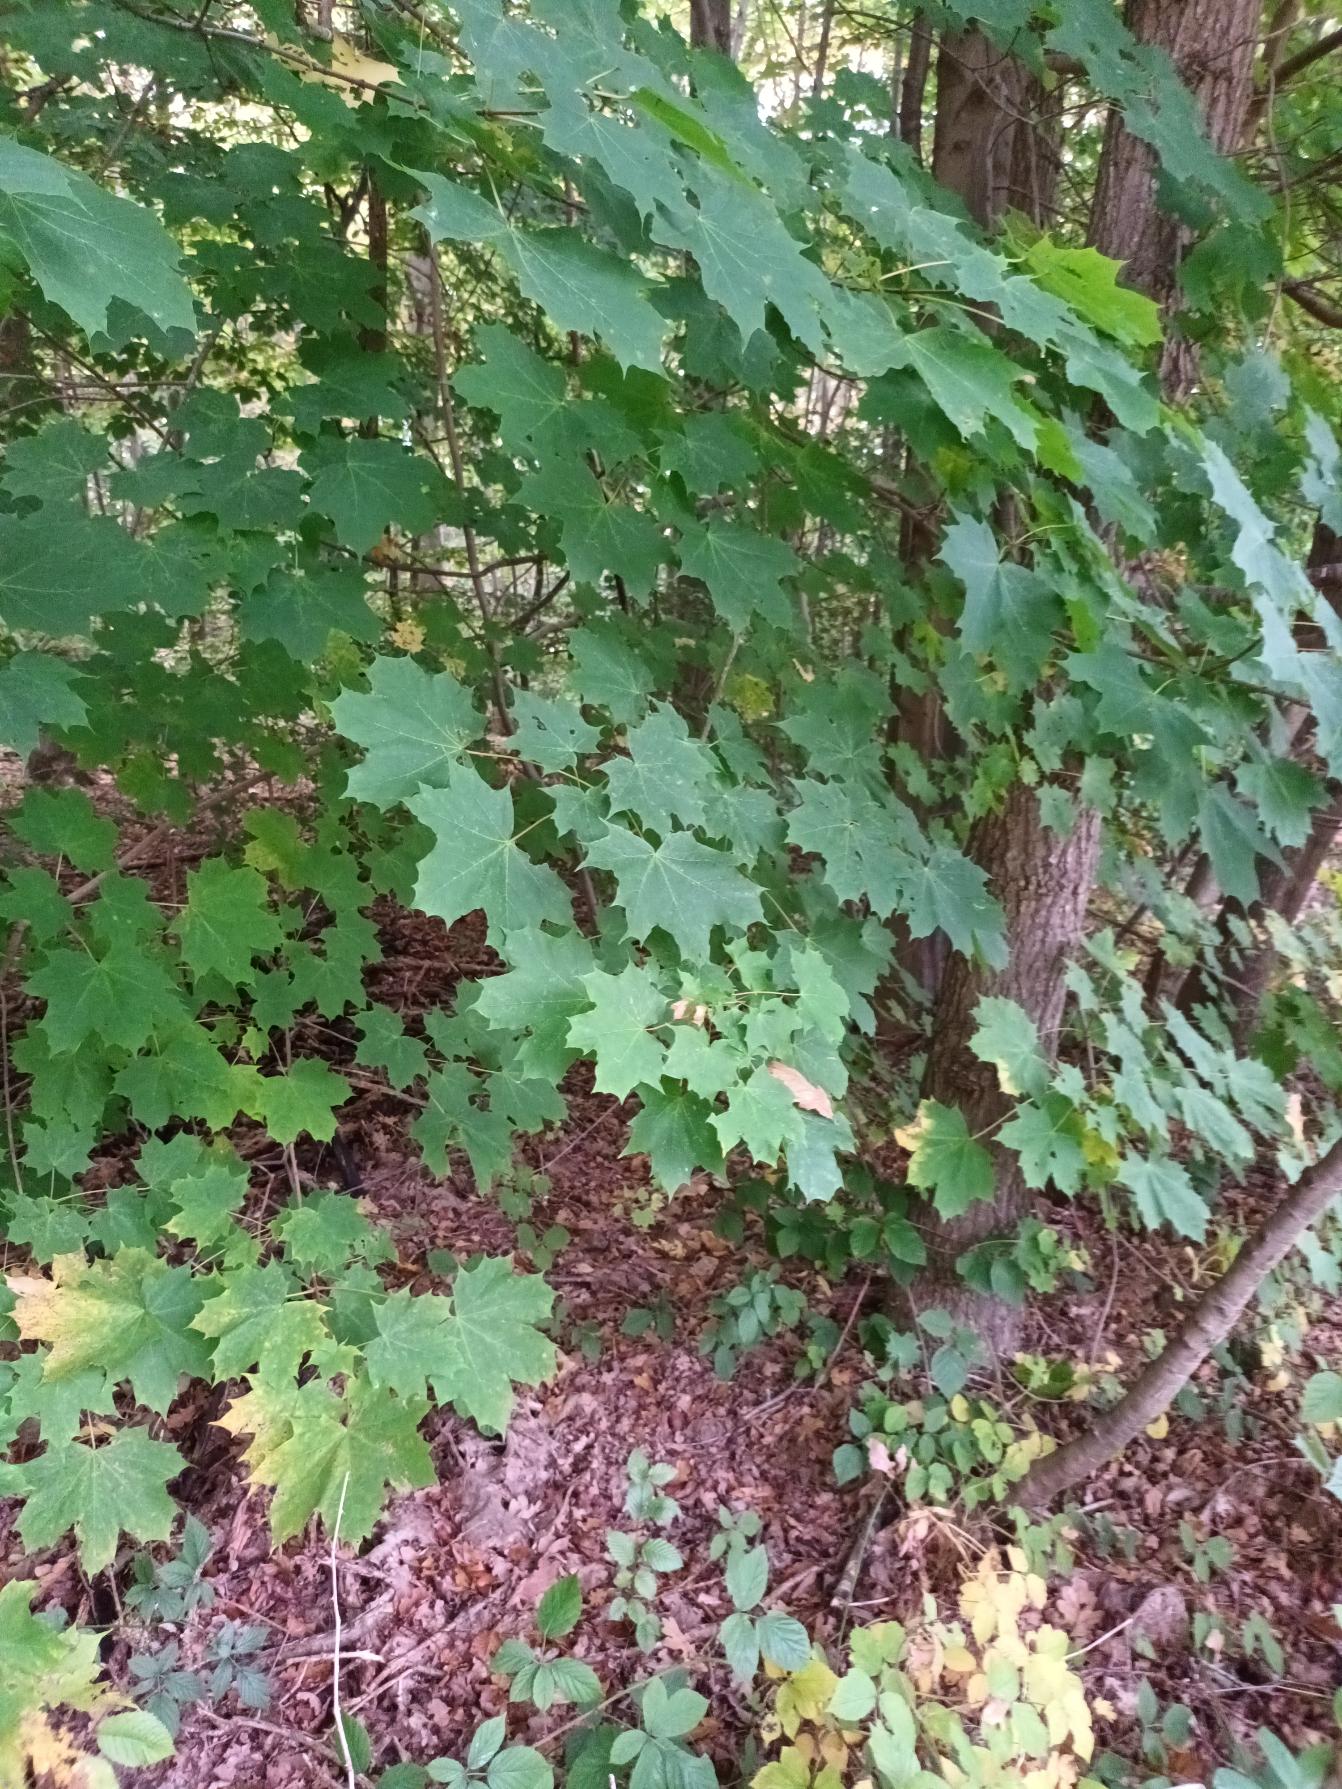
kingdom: Plantae
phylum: Tracheophyta
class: Magnoliopsida
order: Sapindales
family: Sapindaceae
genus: Acer
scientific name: Acer platanoides
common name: Spids-løn
